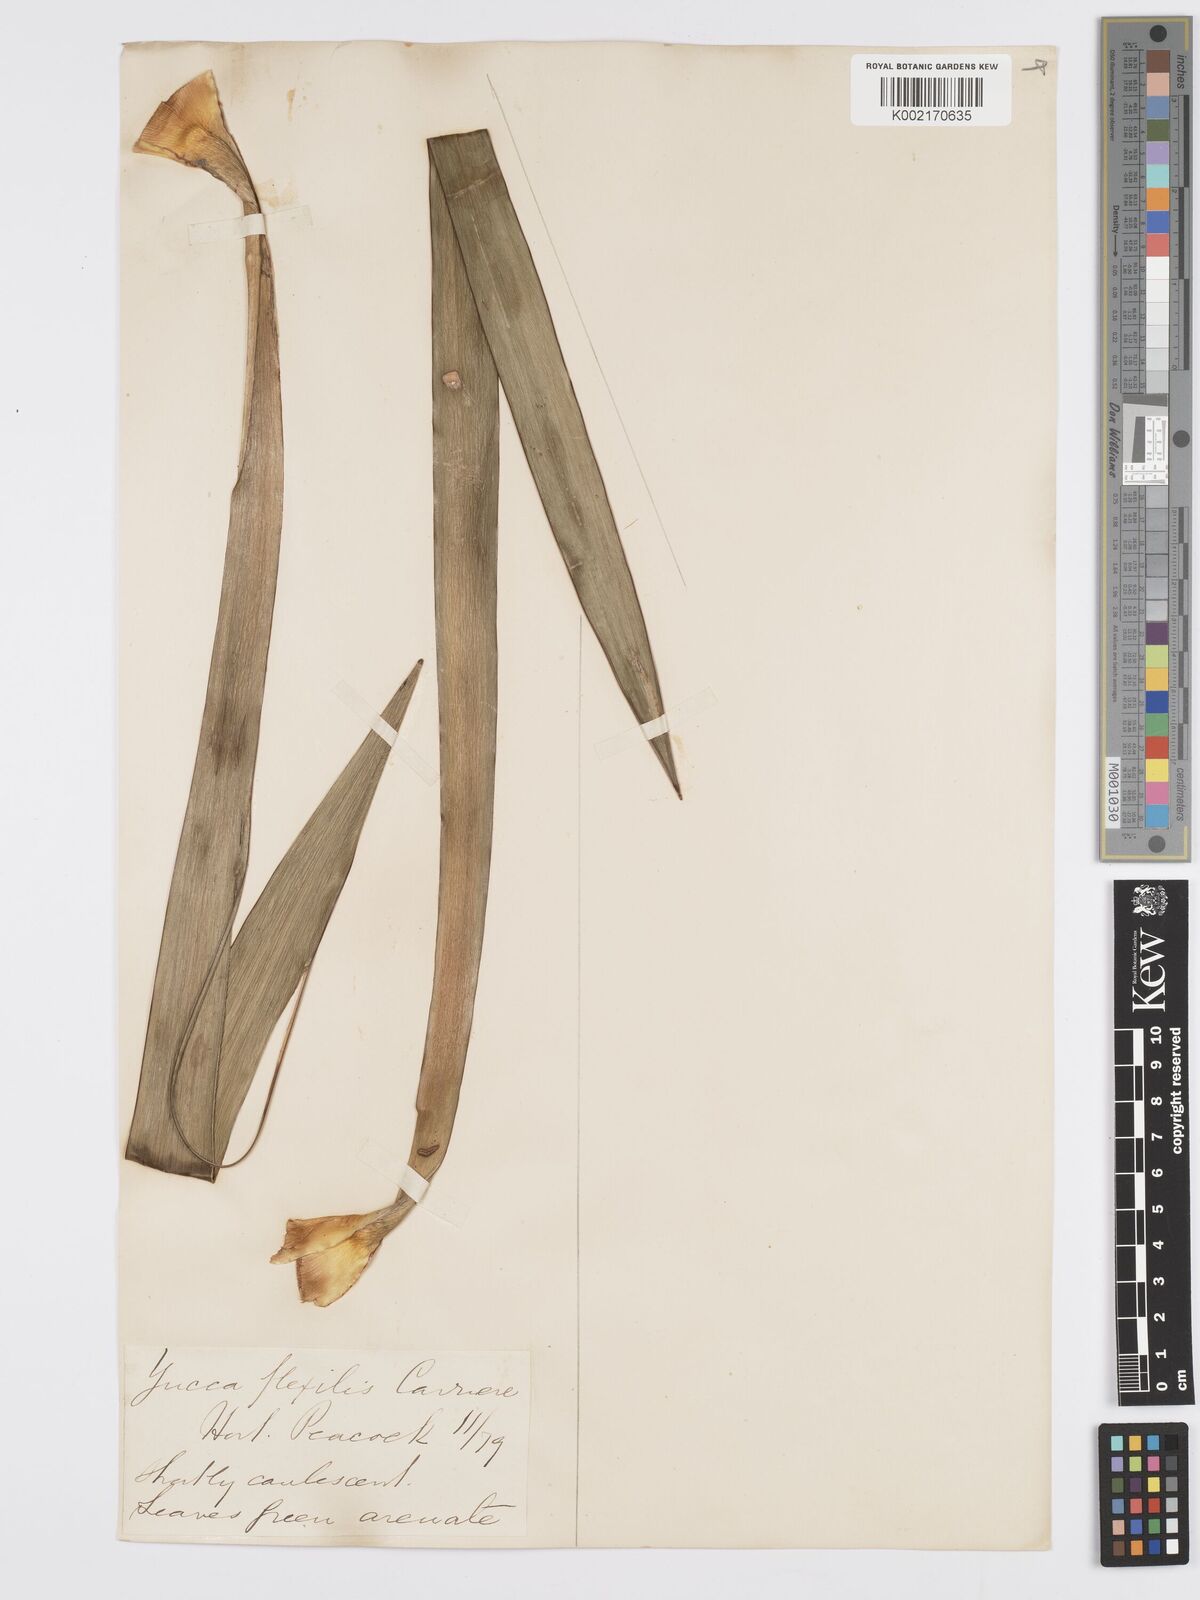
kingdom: Plantae
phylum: Tracheophyta
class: Liliopsida
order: Asparagales
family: Asparagaceae
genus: Yucca
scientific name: Yucca gloriosa
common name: Spanish-dagger
